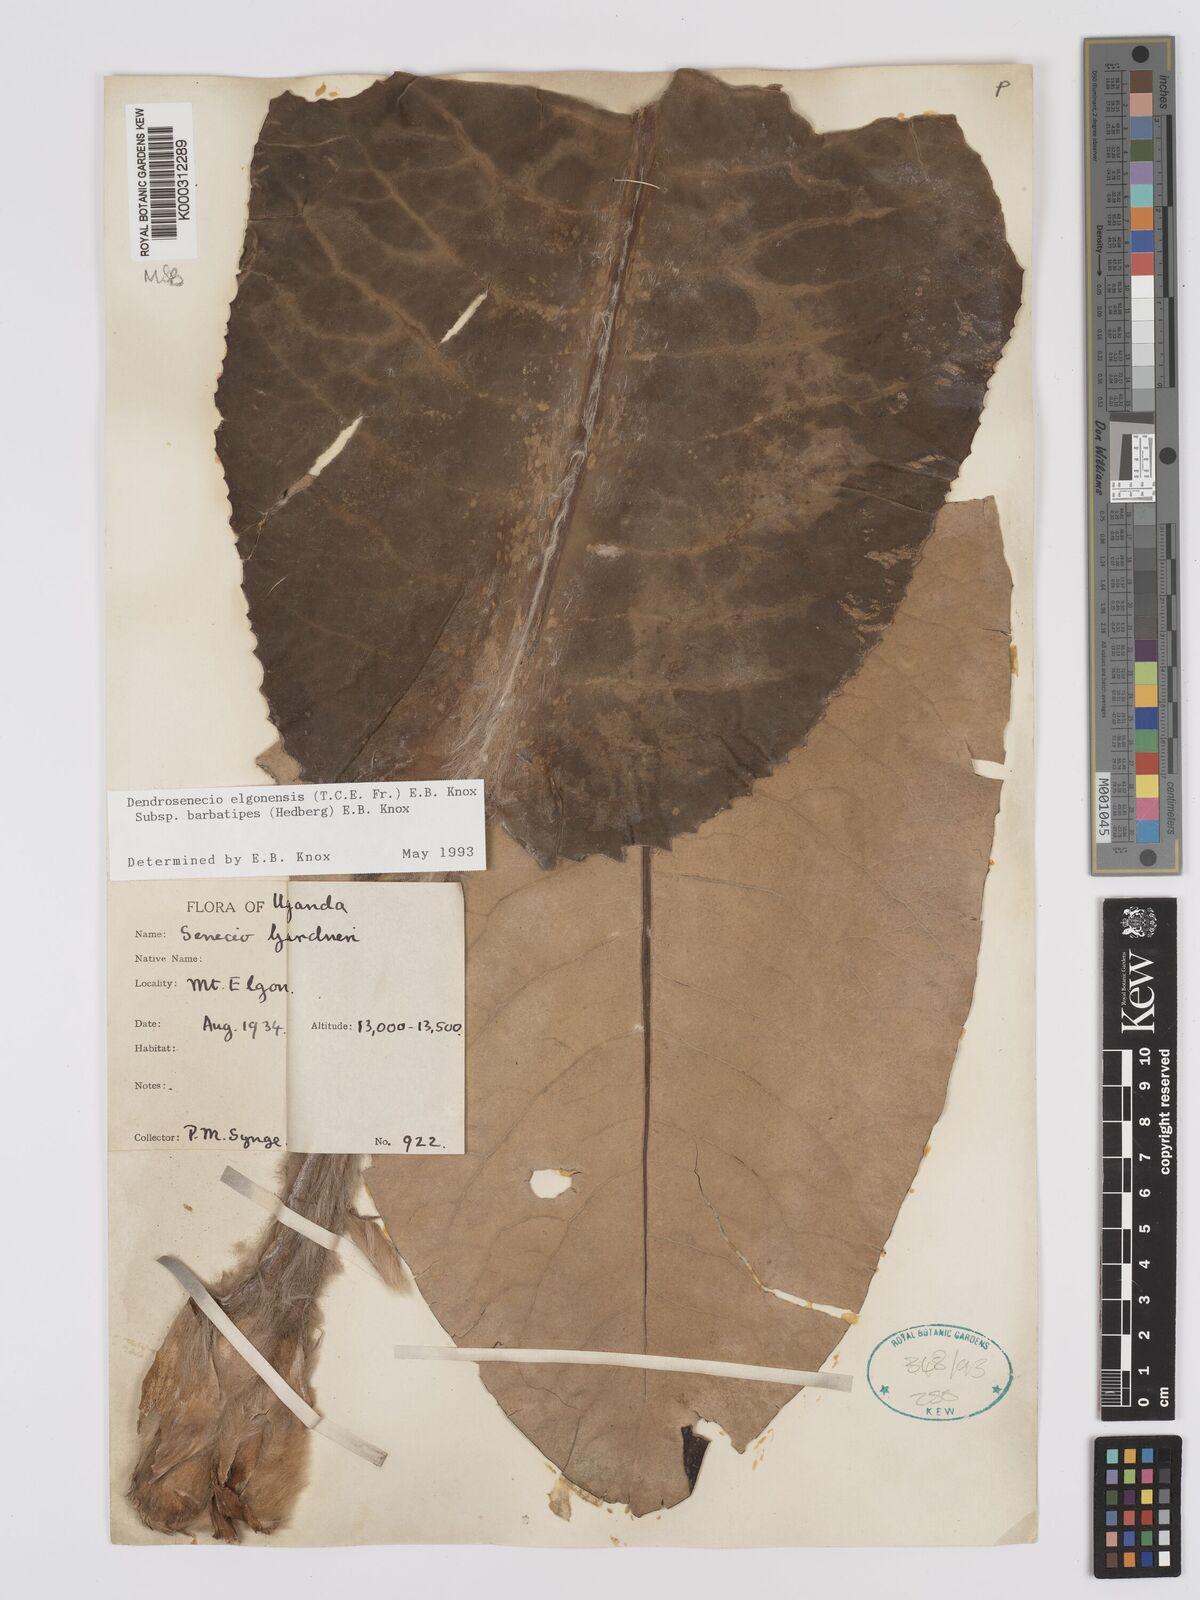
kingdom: Plantae
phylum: Tracheophyta
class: Magnoliopsida
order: Asterales
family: Asteraceae
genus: Dendrosenecio
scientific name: Dendrosenecio elgonensis
